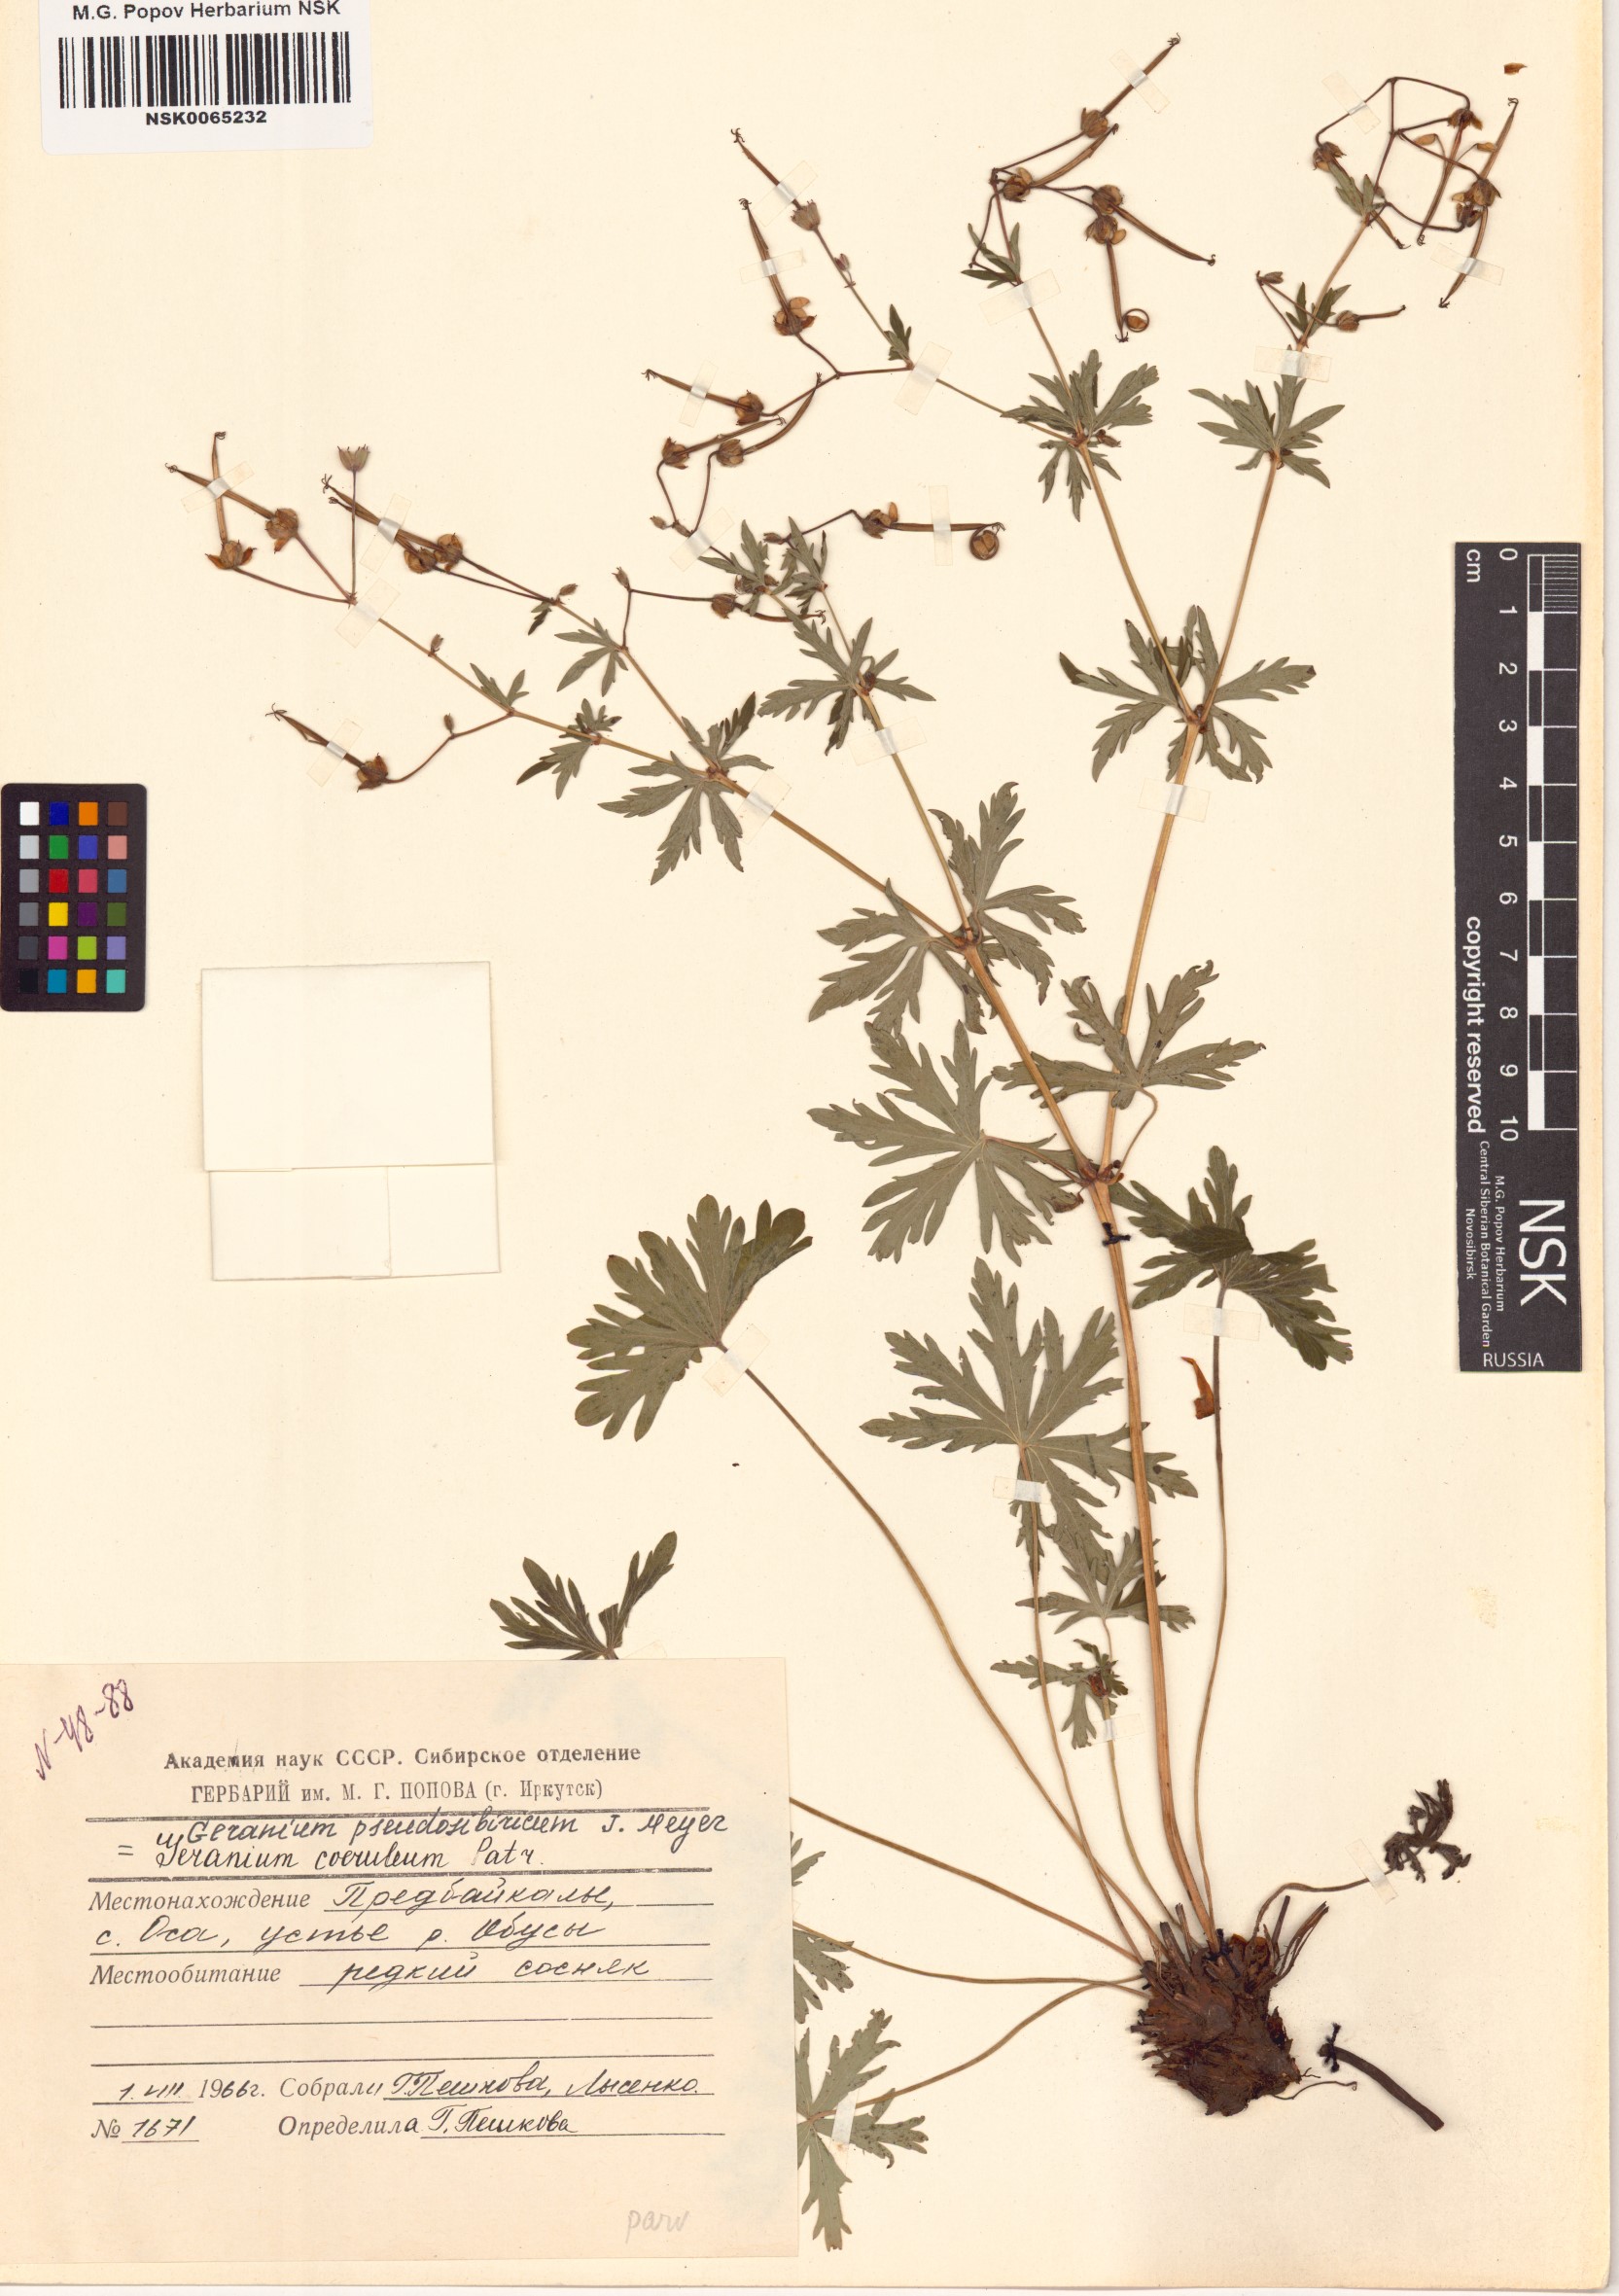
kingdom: Plantae
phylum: Tracheophyta
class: Magnoliopsida
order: Geraniales
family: Geraniaceae
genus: Geranium
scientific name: Geranium pseudosibiricum
